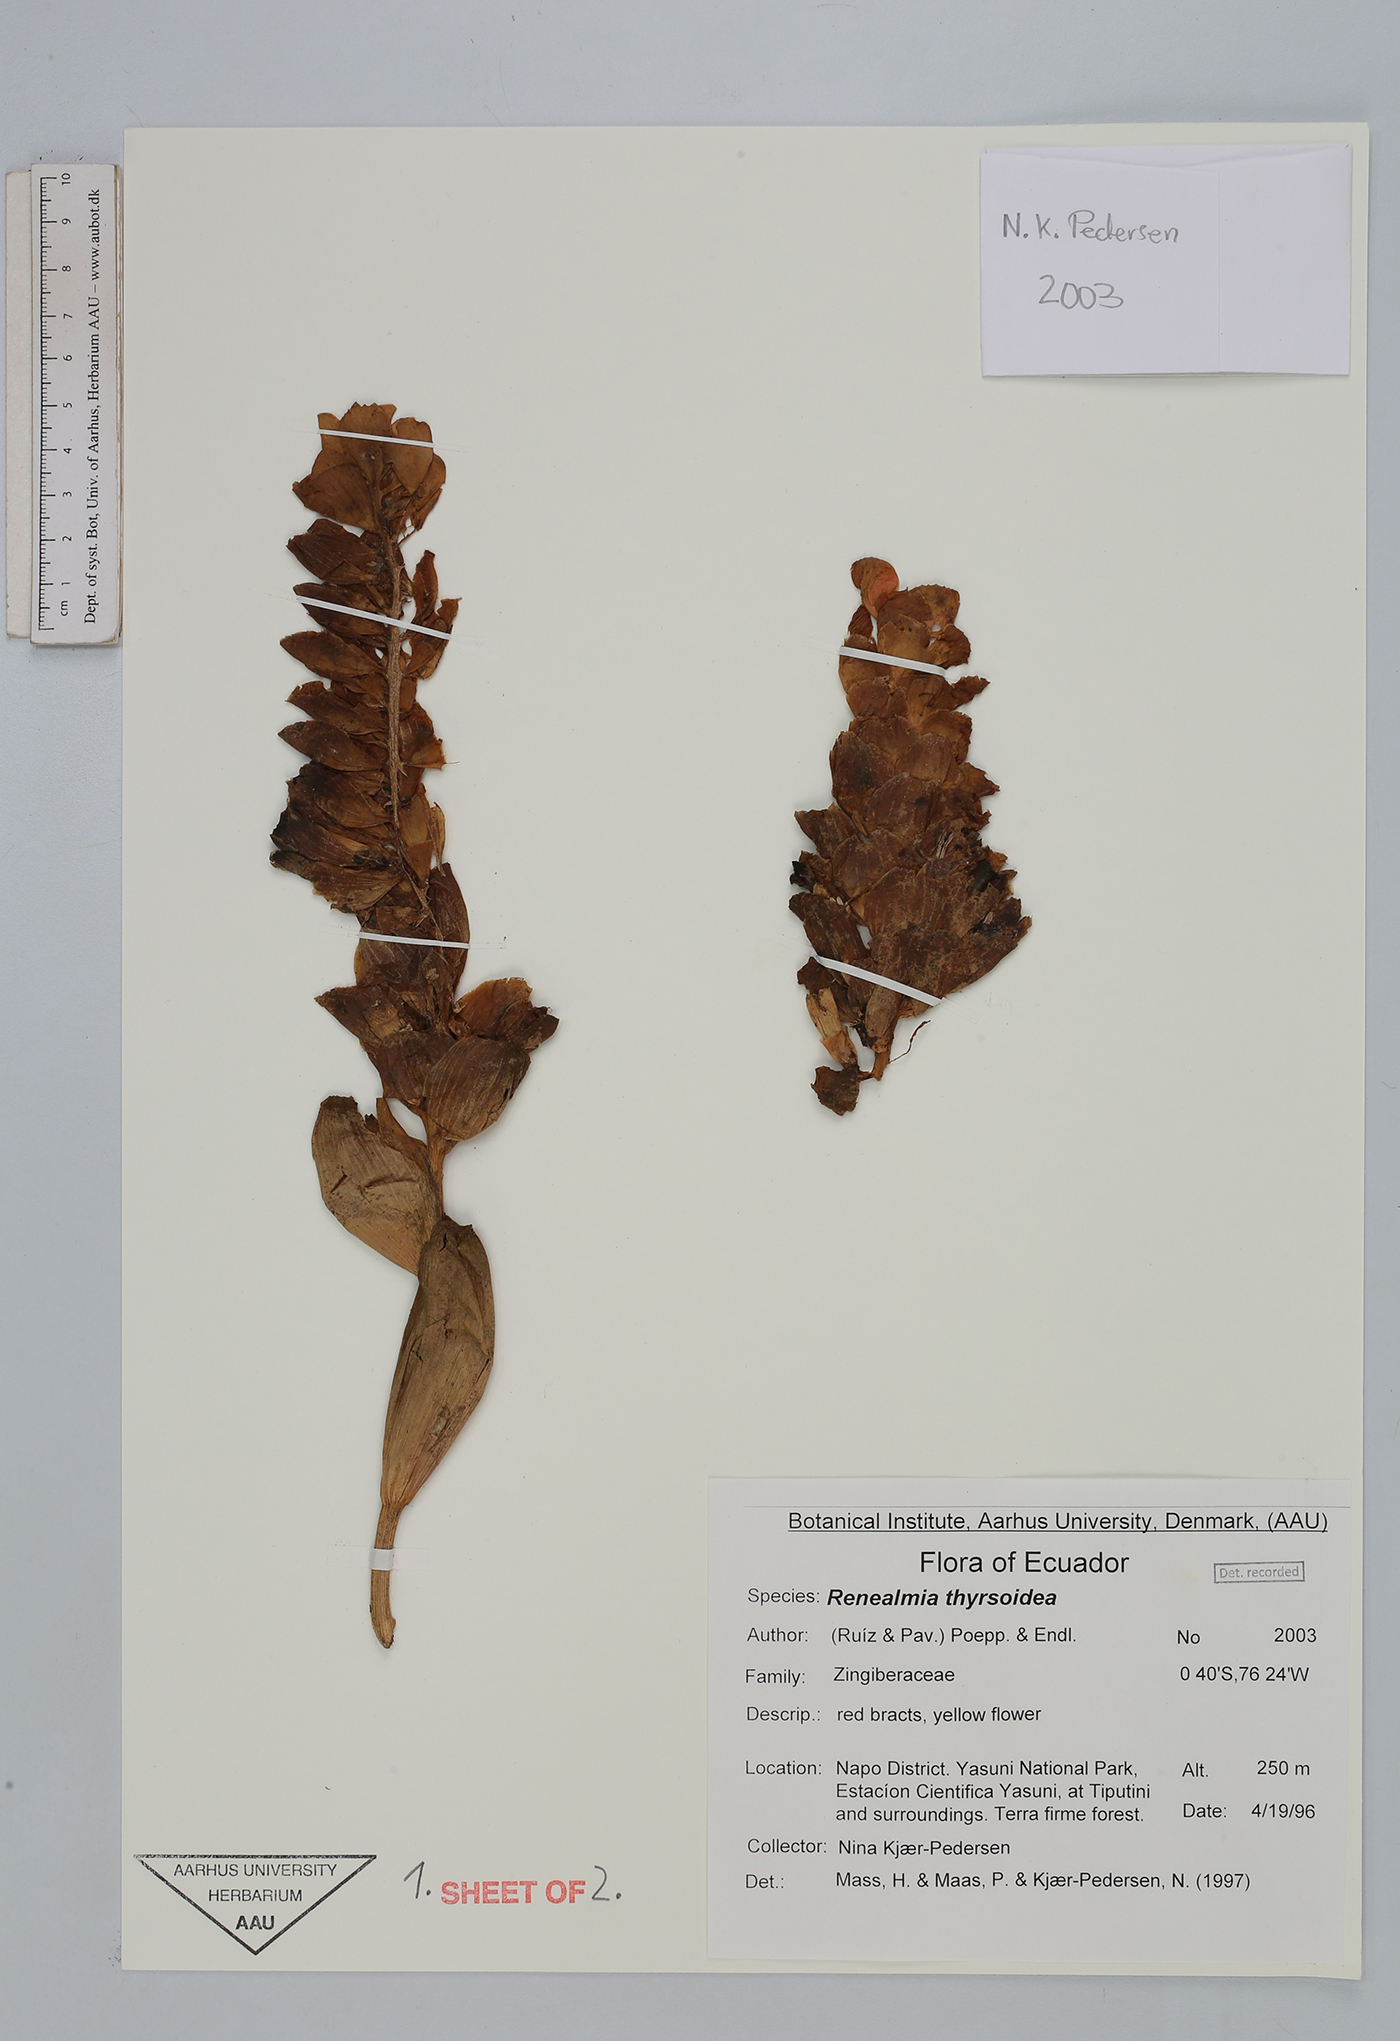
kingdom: Plantae
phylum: Tracheophyta
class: Liliopsida
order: Zingiberales
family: Zingiberaceae
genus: Renealmia
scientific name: Renealmia thyrsoidea
